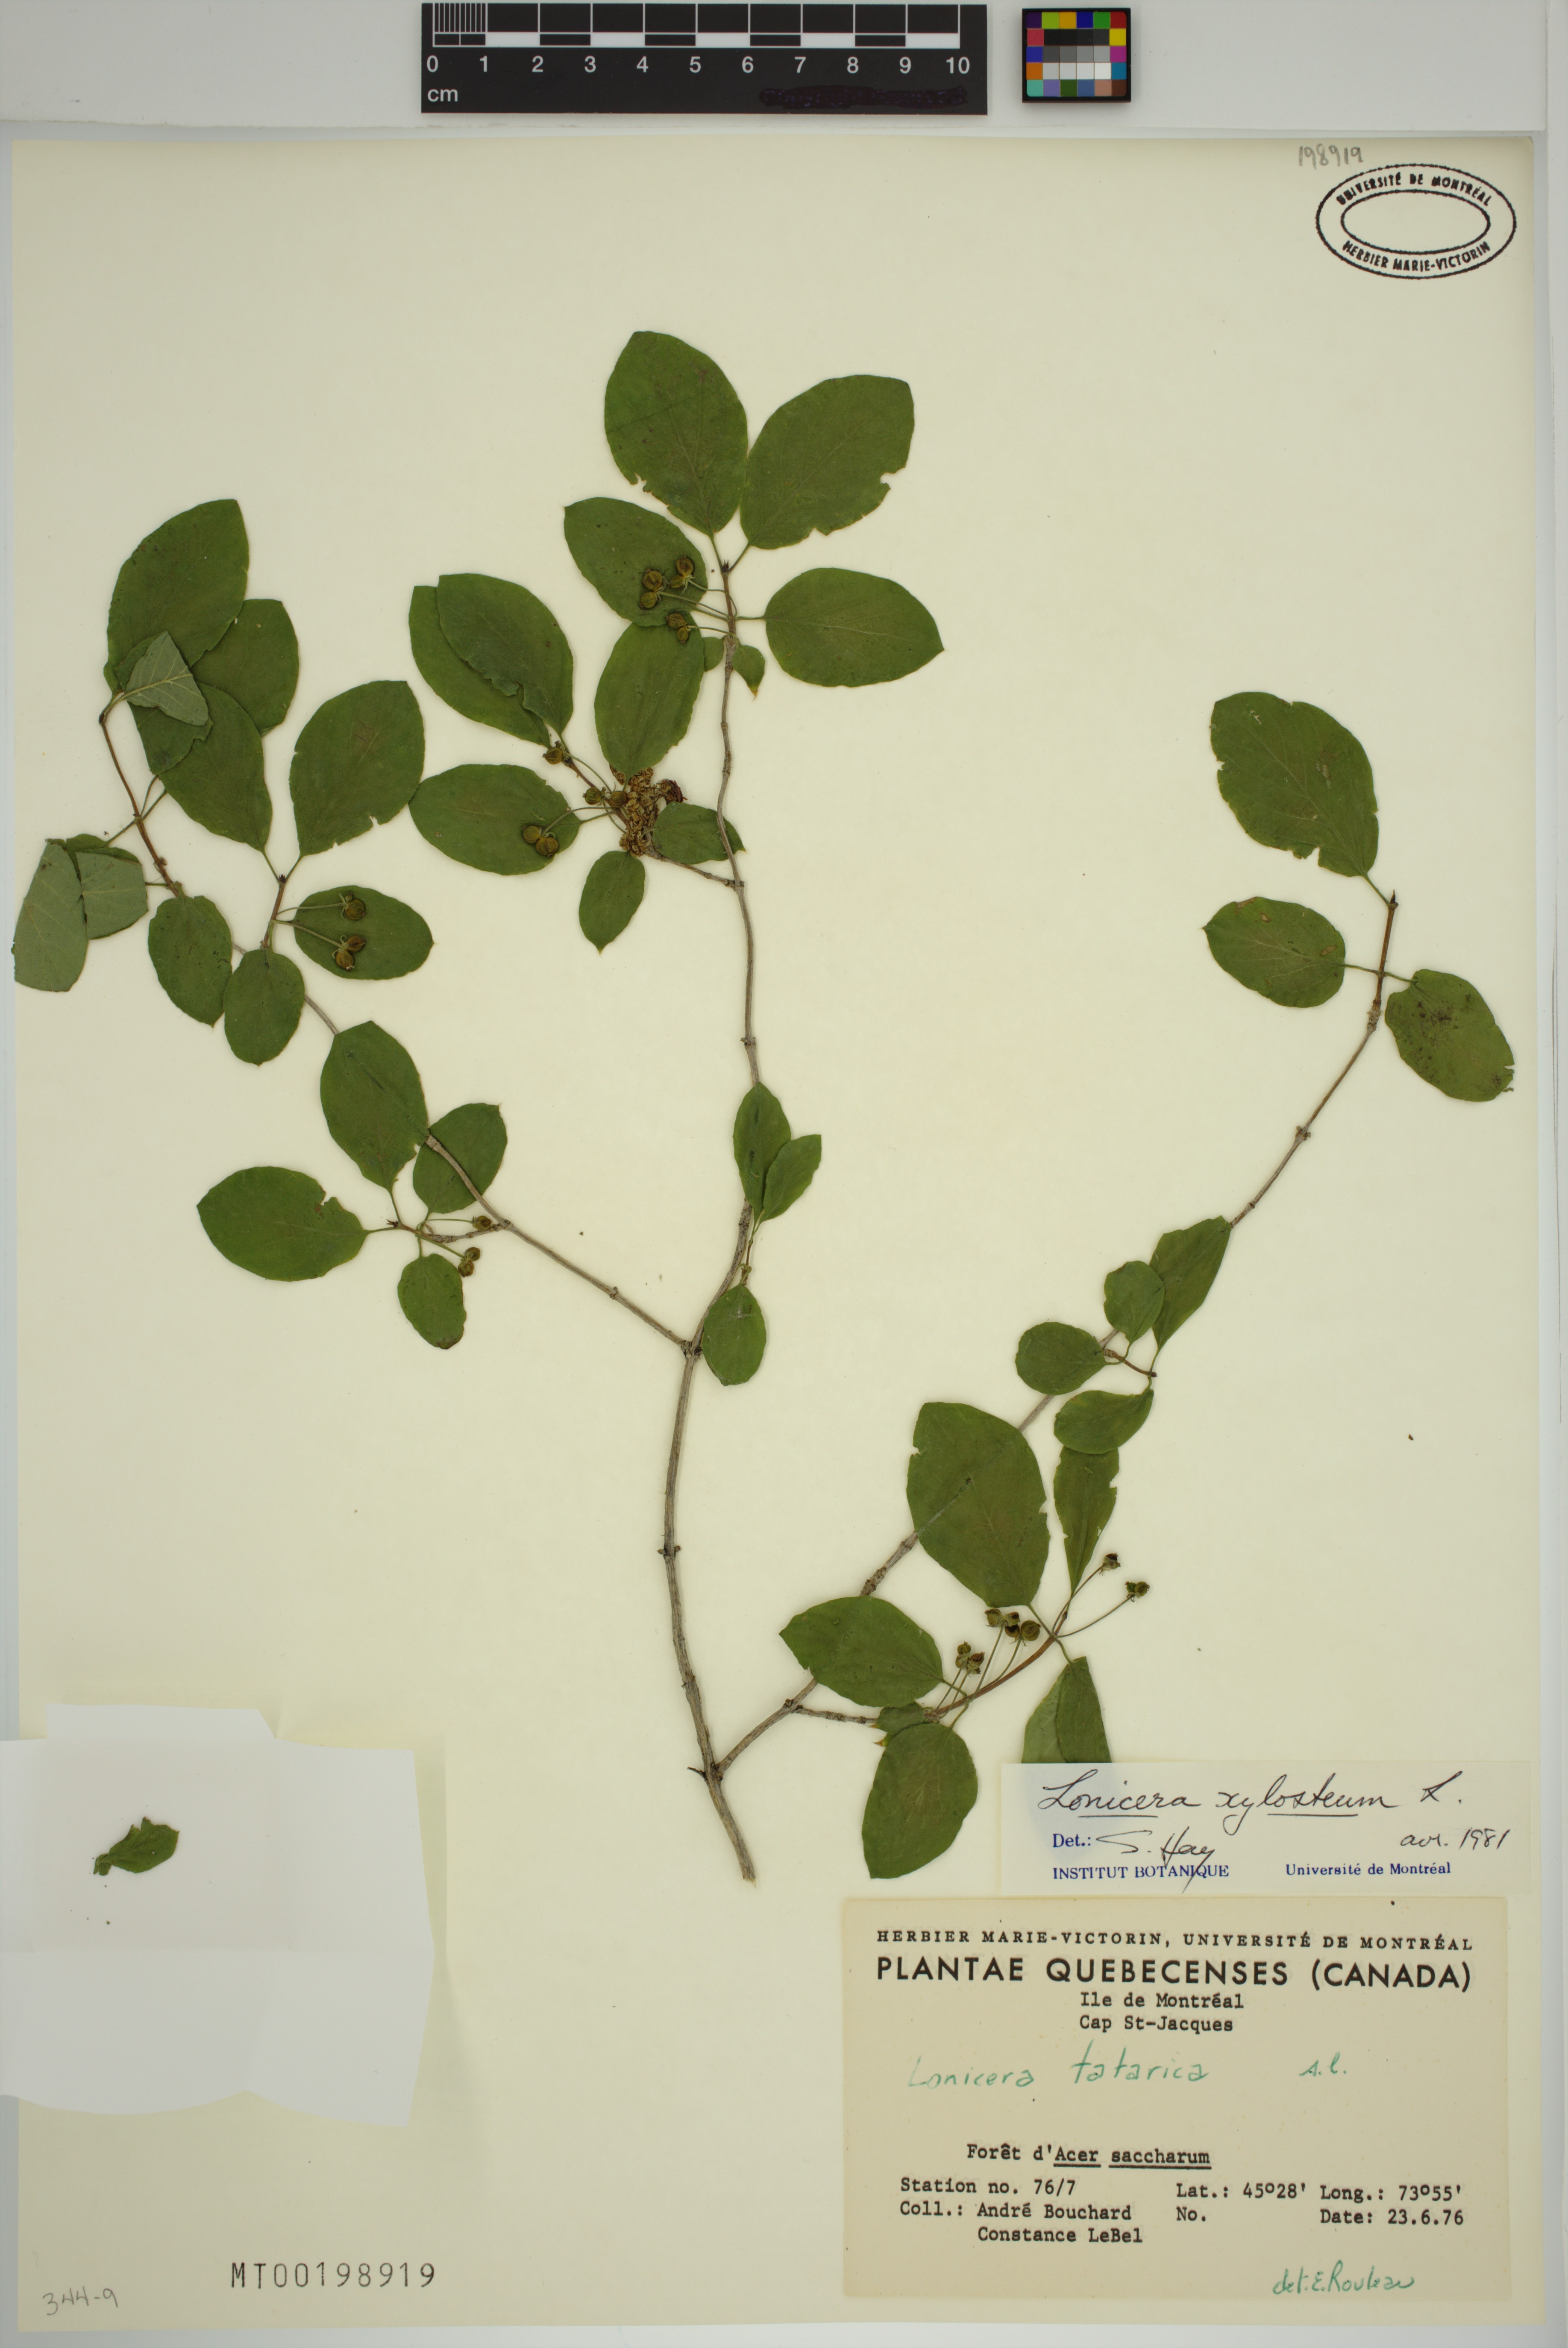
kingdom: Plantae
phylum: Tracheophyta
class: Magnoliopsida
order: Dipsacales
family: Caprifoliaceae
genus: Lonicera
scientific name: Lonicera xylosteum
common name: Fly honeysuckle
